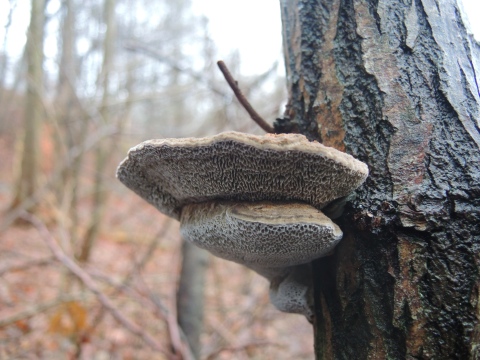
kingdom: Fungi
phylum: Basidiomycota
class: Agaricomycetes
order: Polyporales
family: Polyporaceae
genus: Daedaleopsis
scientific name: Daedaleopsis confragosa
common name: rødmende læderporesvamp
